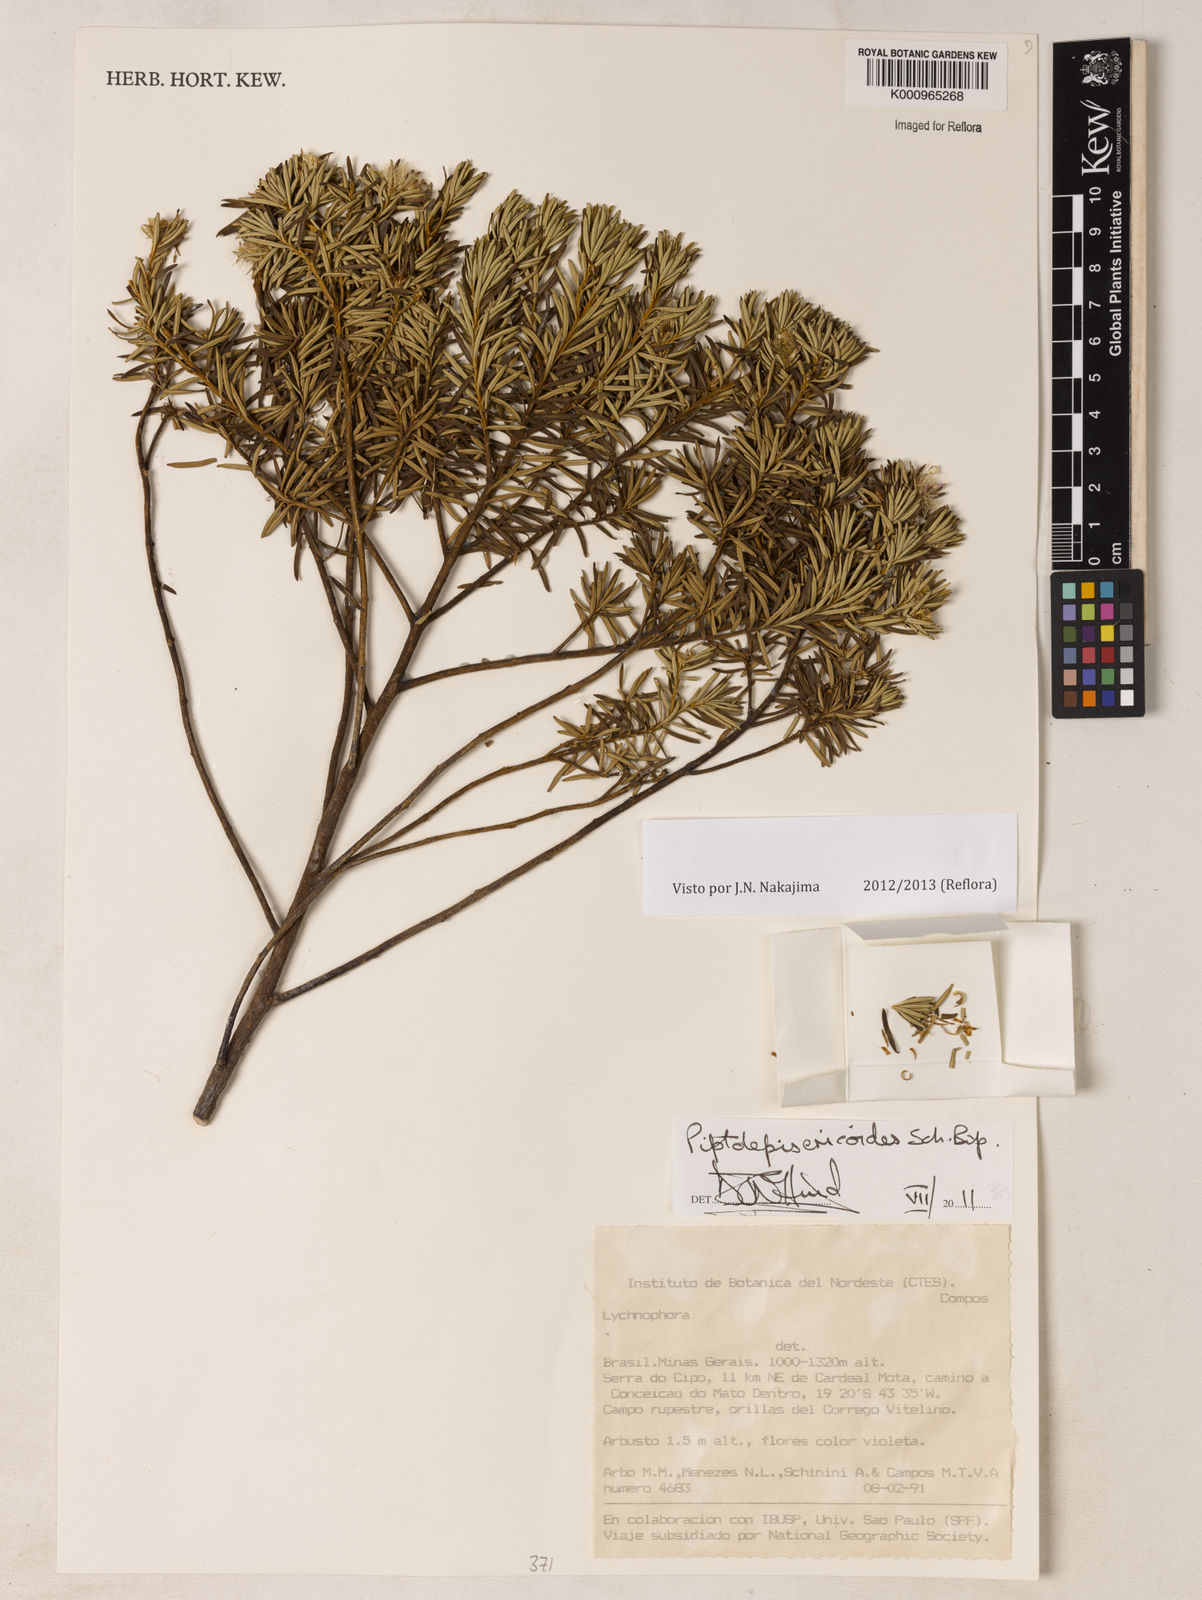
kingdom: Plantae
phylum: Tracheophyta
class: Magnoliopsida
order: Asterales
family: Asteraceae
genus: Piptolepis
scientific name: Piptolepis ericoides
